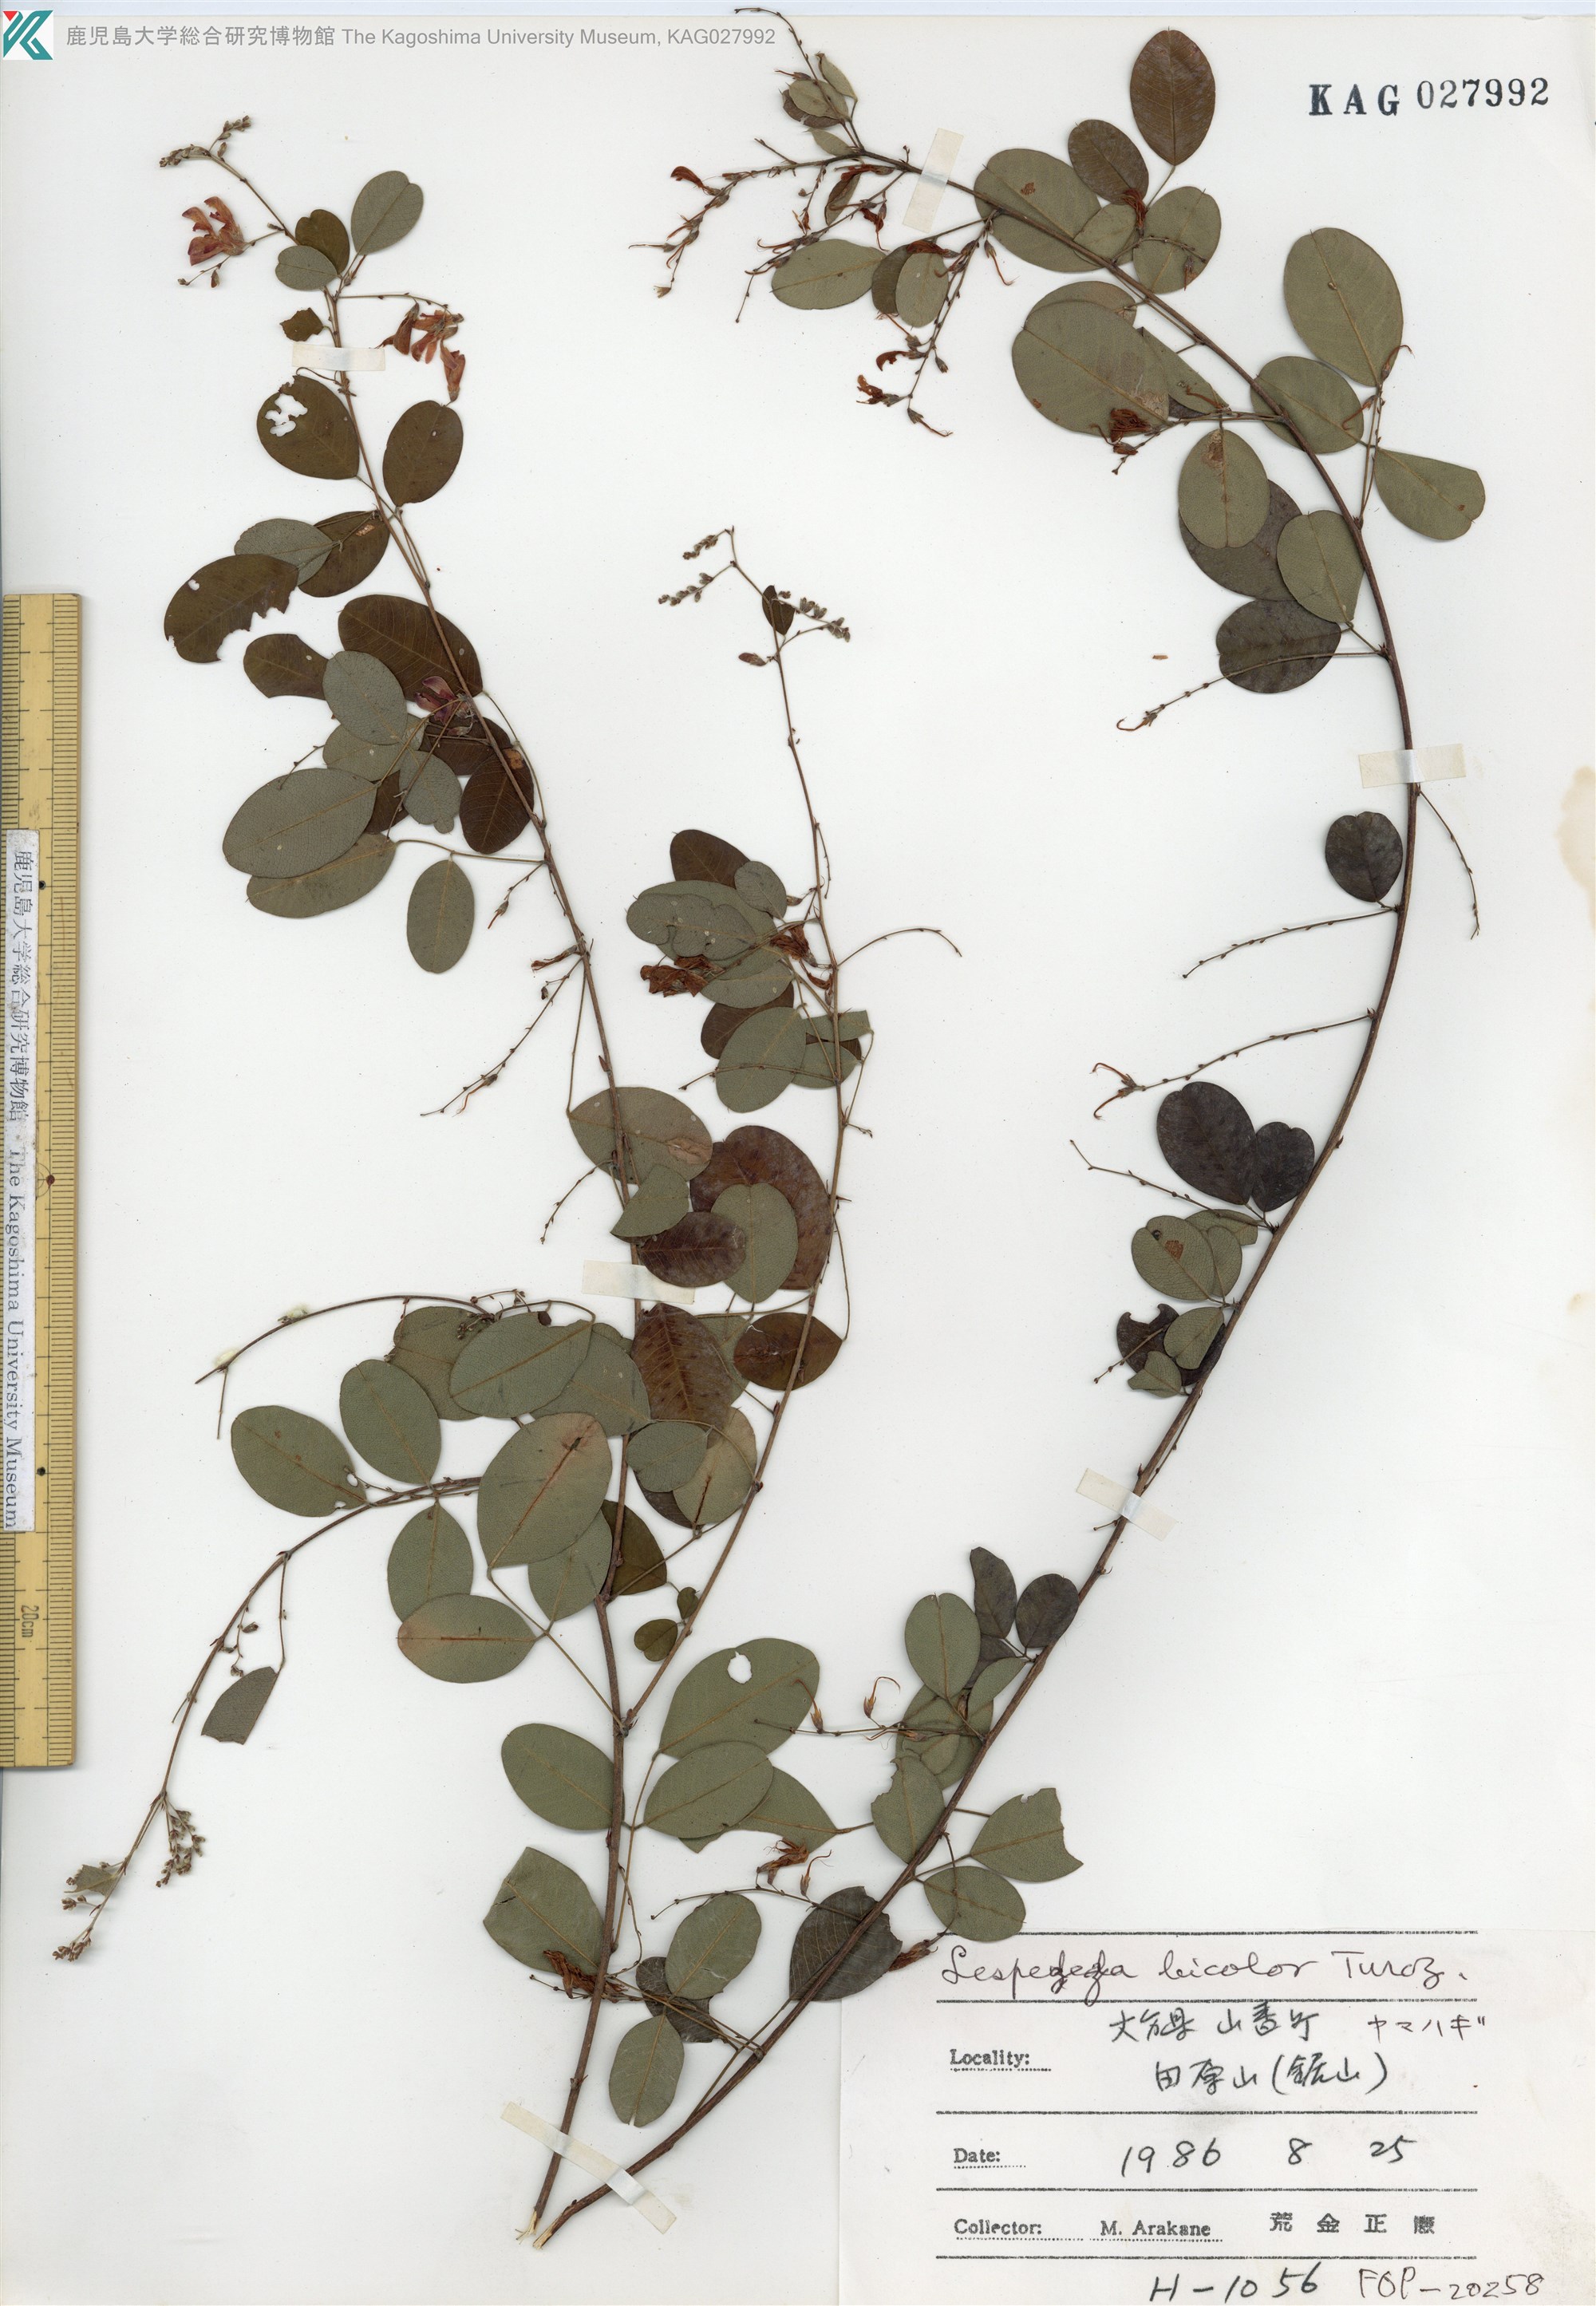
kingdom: Plantae
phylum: Tracheophyta
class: Magnoliopsida
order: Fabales
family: Fabaceae
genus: Lespedeza
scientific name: Lespedeza bicolor
